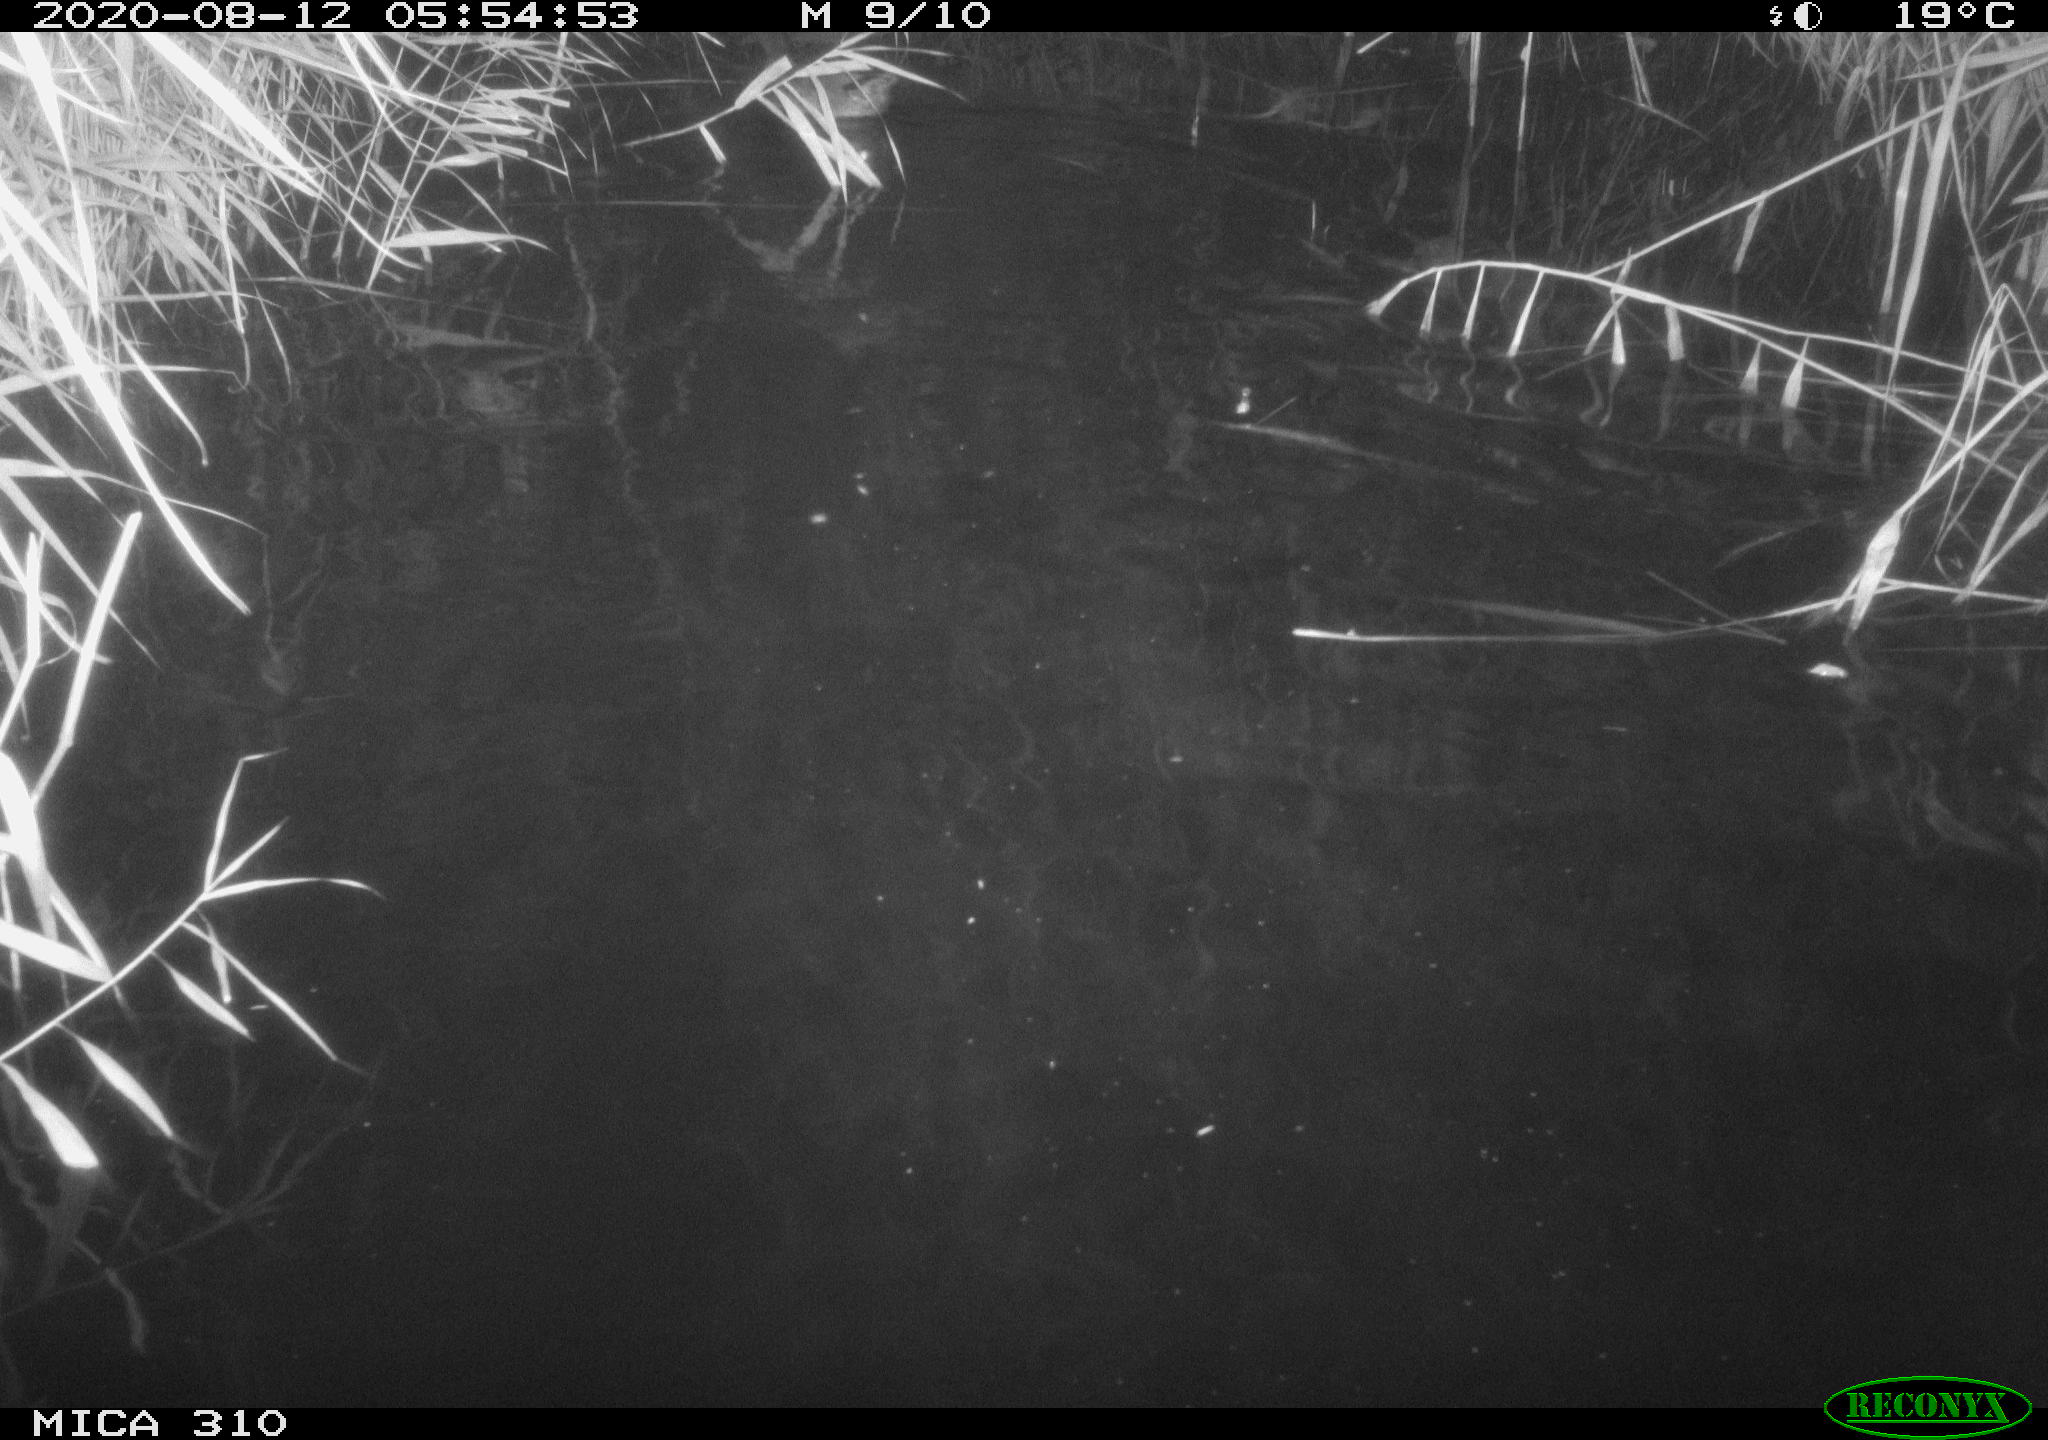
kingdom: Animalia
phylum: Chordata
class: Aves
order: Anseriformes
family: Anatidae
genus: Anas
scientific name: Anas platyrhynchos
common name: Mallard
